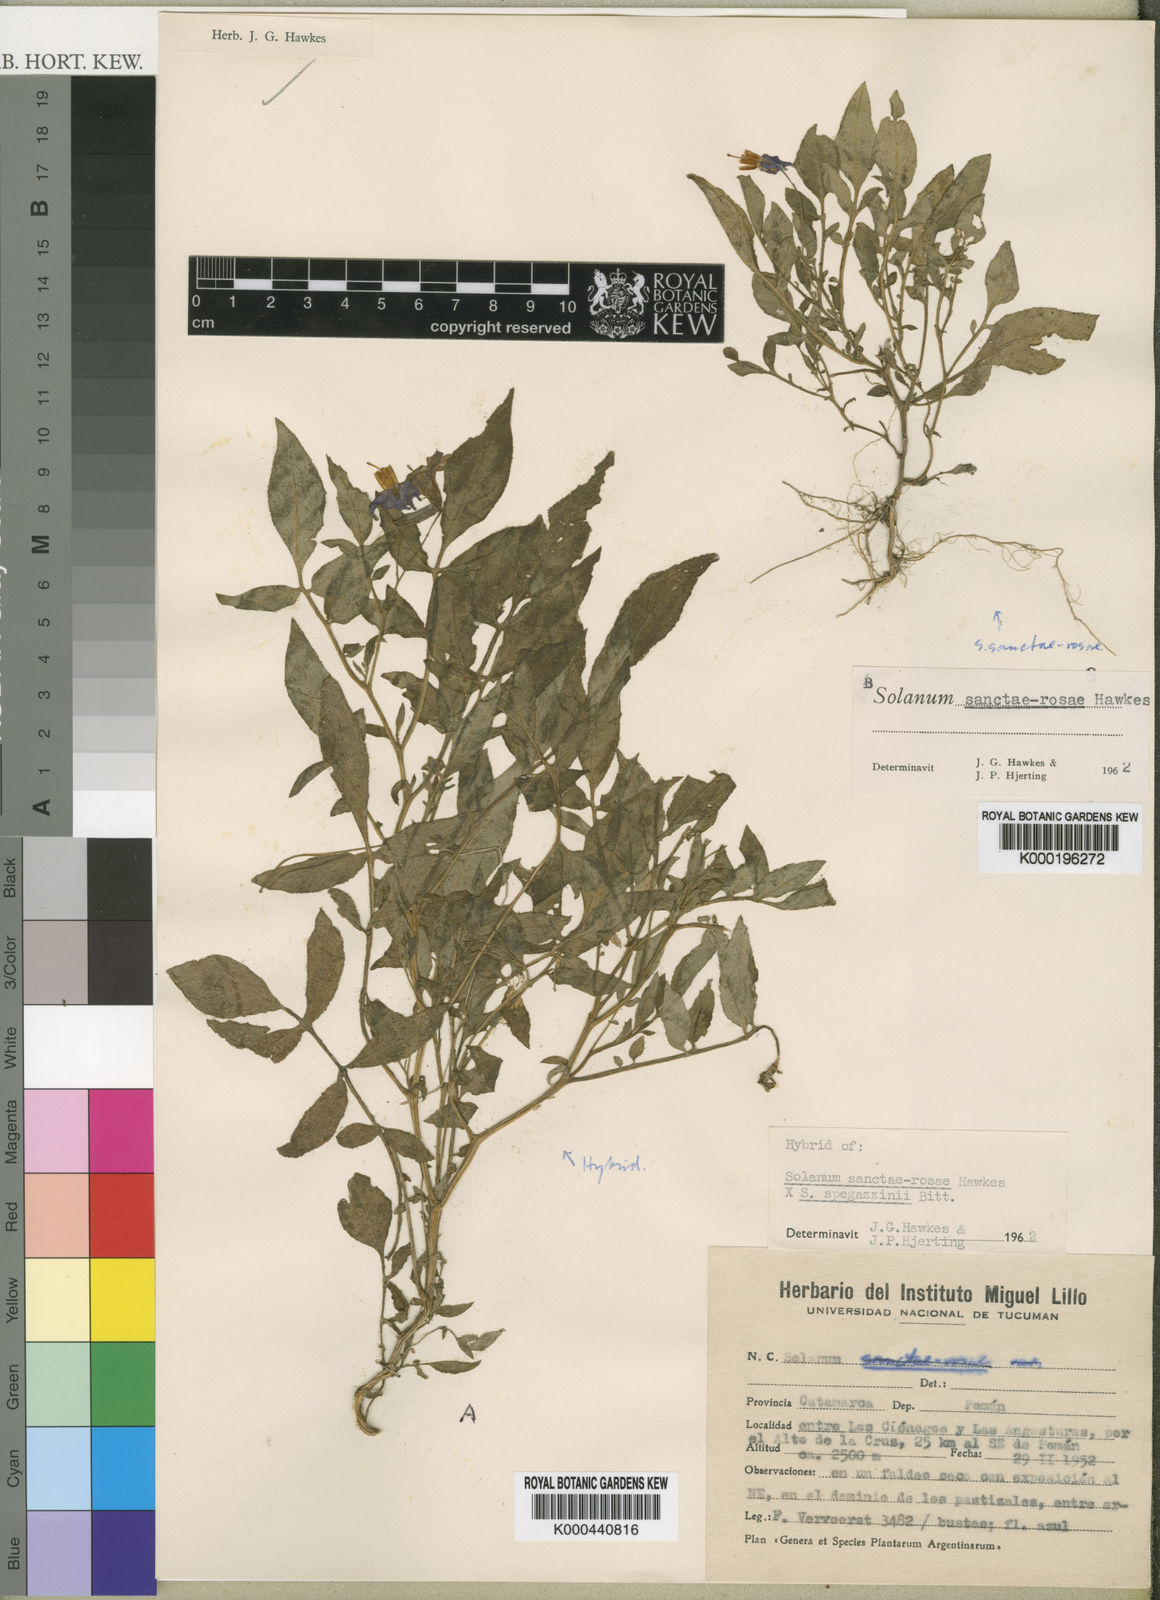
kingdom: Plantae
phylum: Tracheophyta
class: Magnoliopsida
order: Solanales
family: Solanaceae
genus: Solanum
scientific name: Solanum
